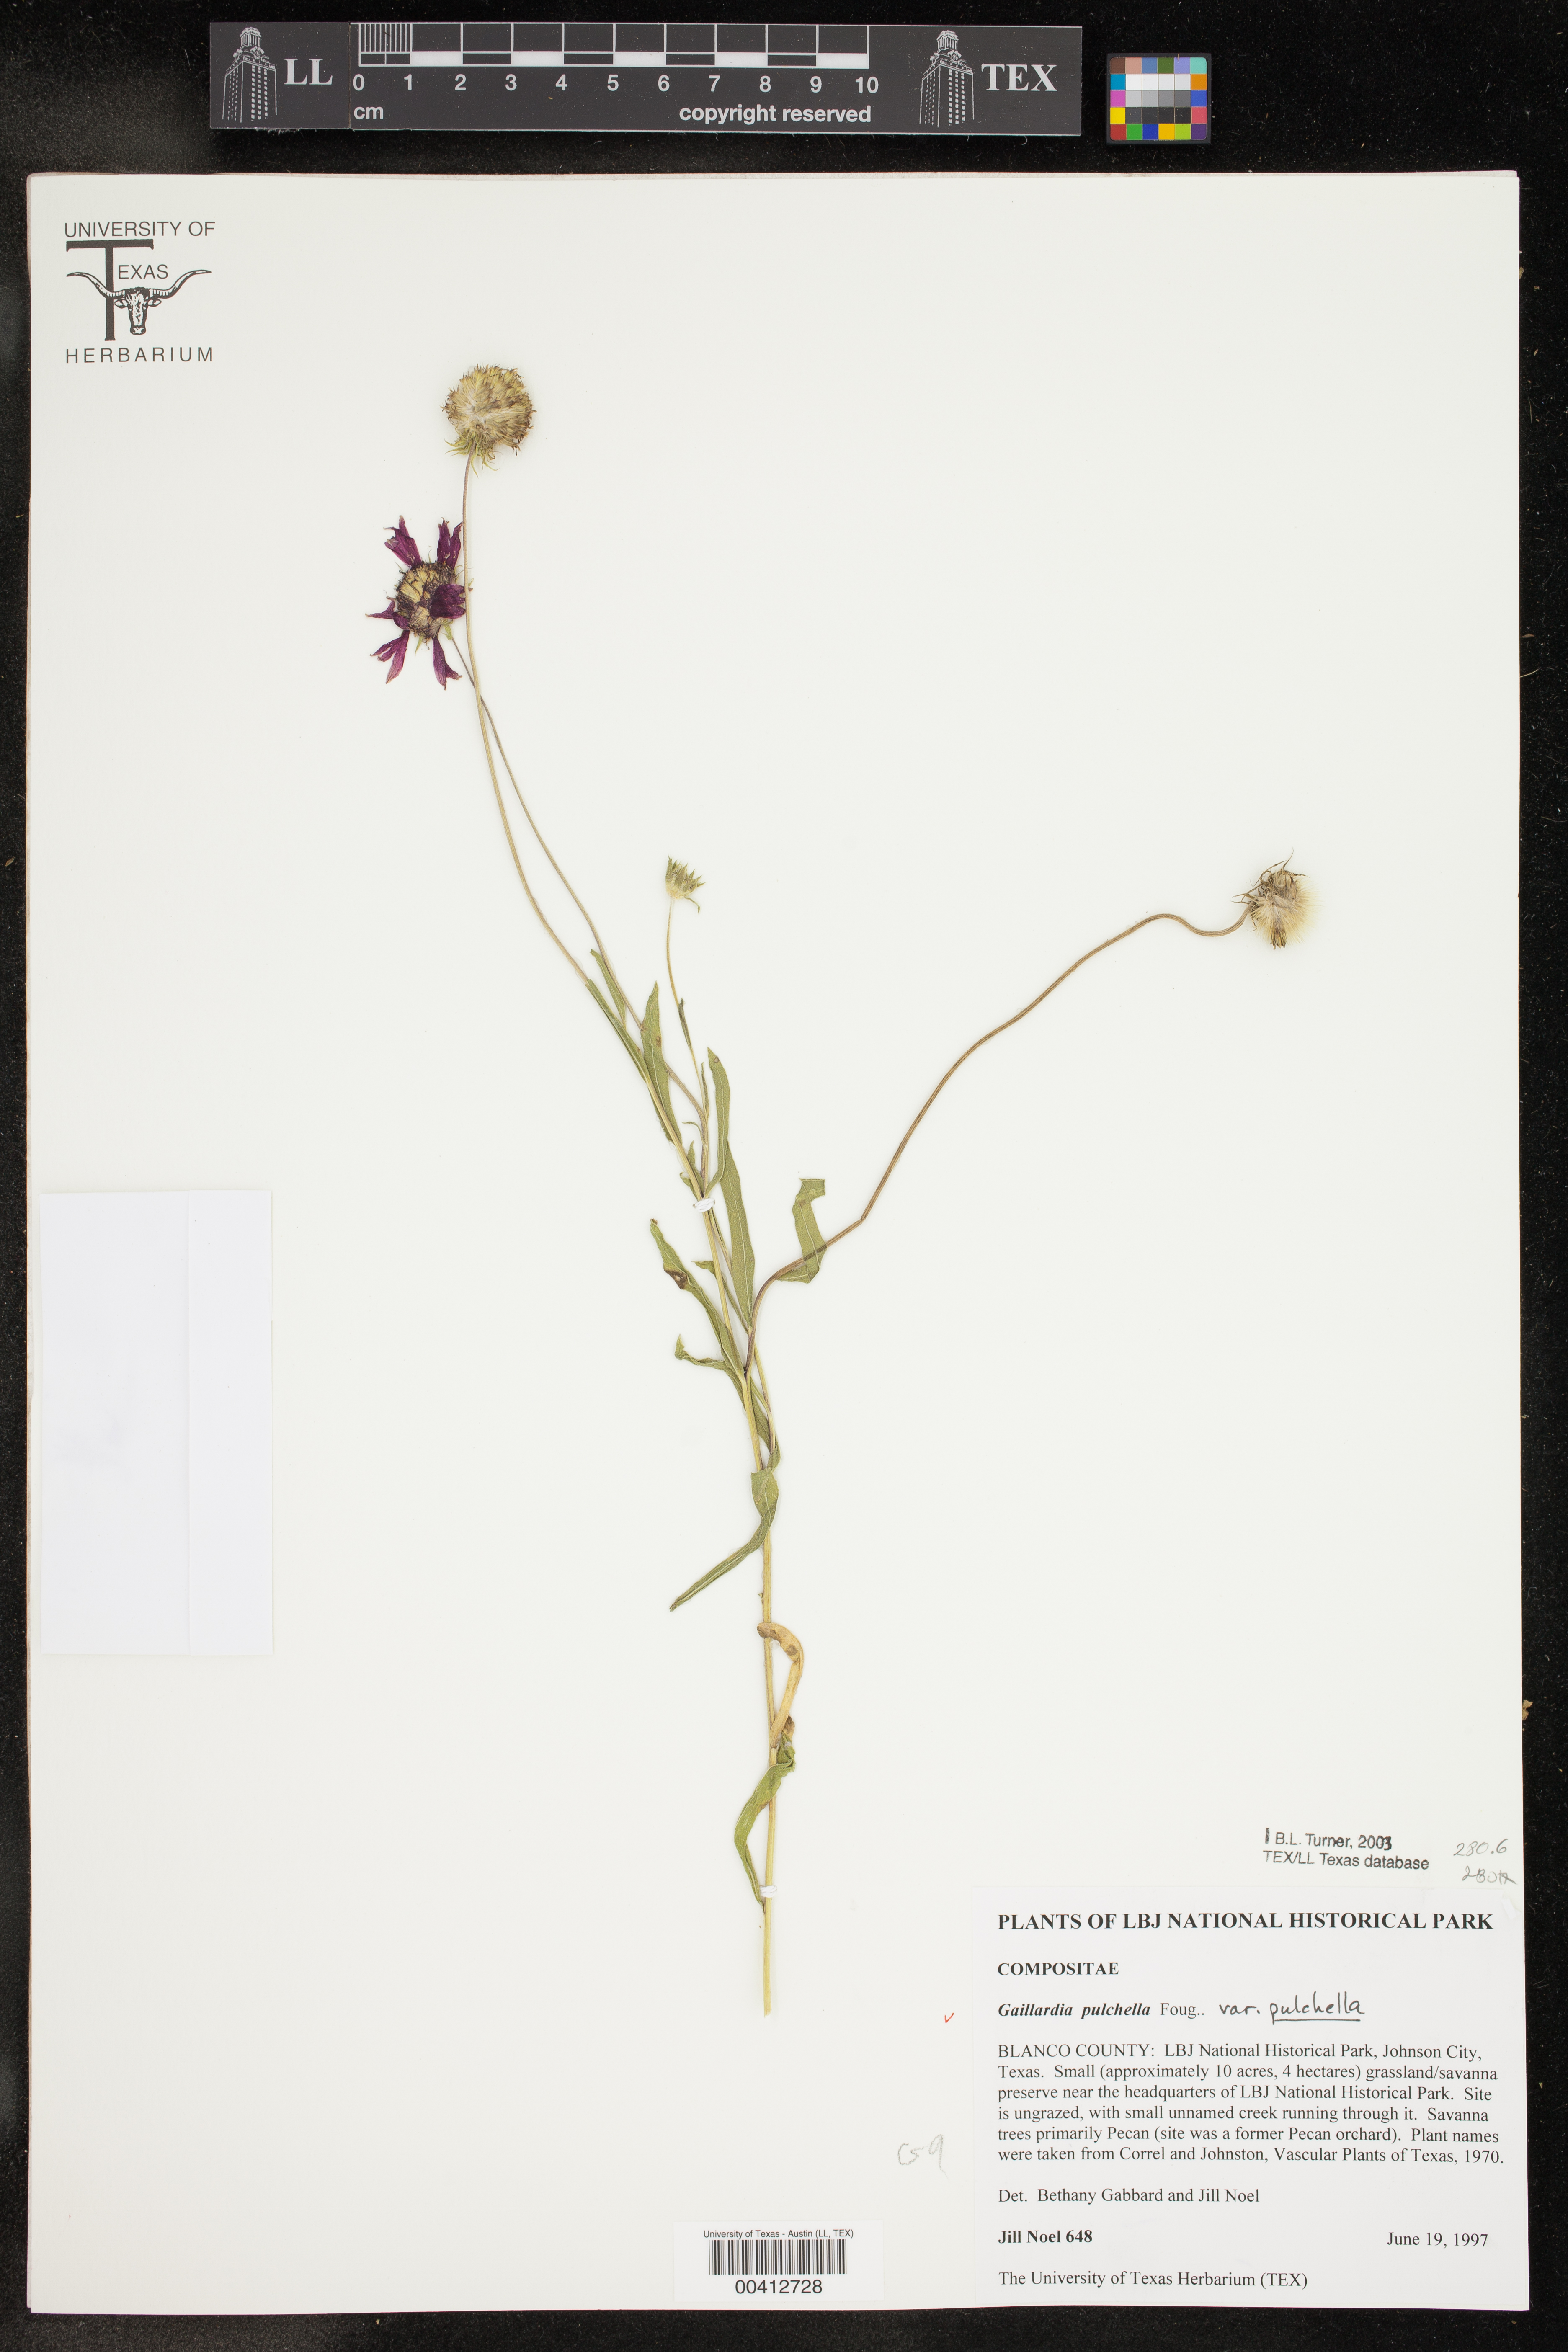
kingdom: Plantae
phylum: Tracheophyta
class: Magnoliopsida
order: Asterales
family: Asteraceae
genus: Gaillardia
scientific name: Gaillardia pulchella
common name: Firewheel
